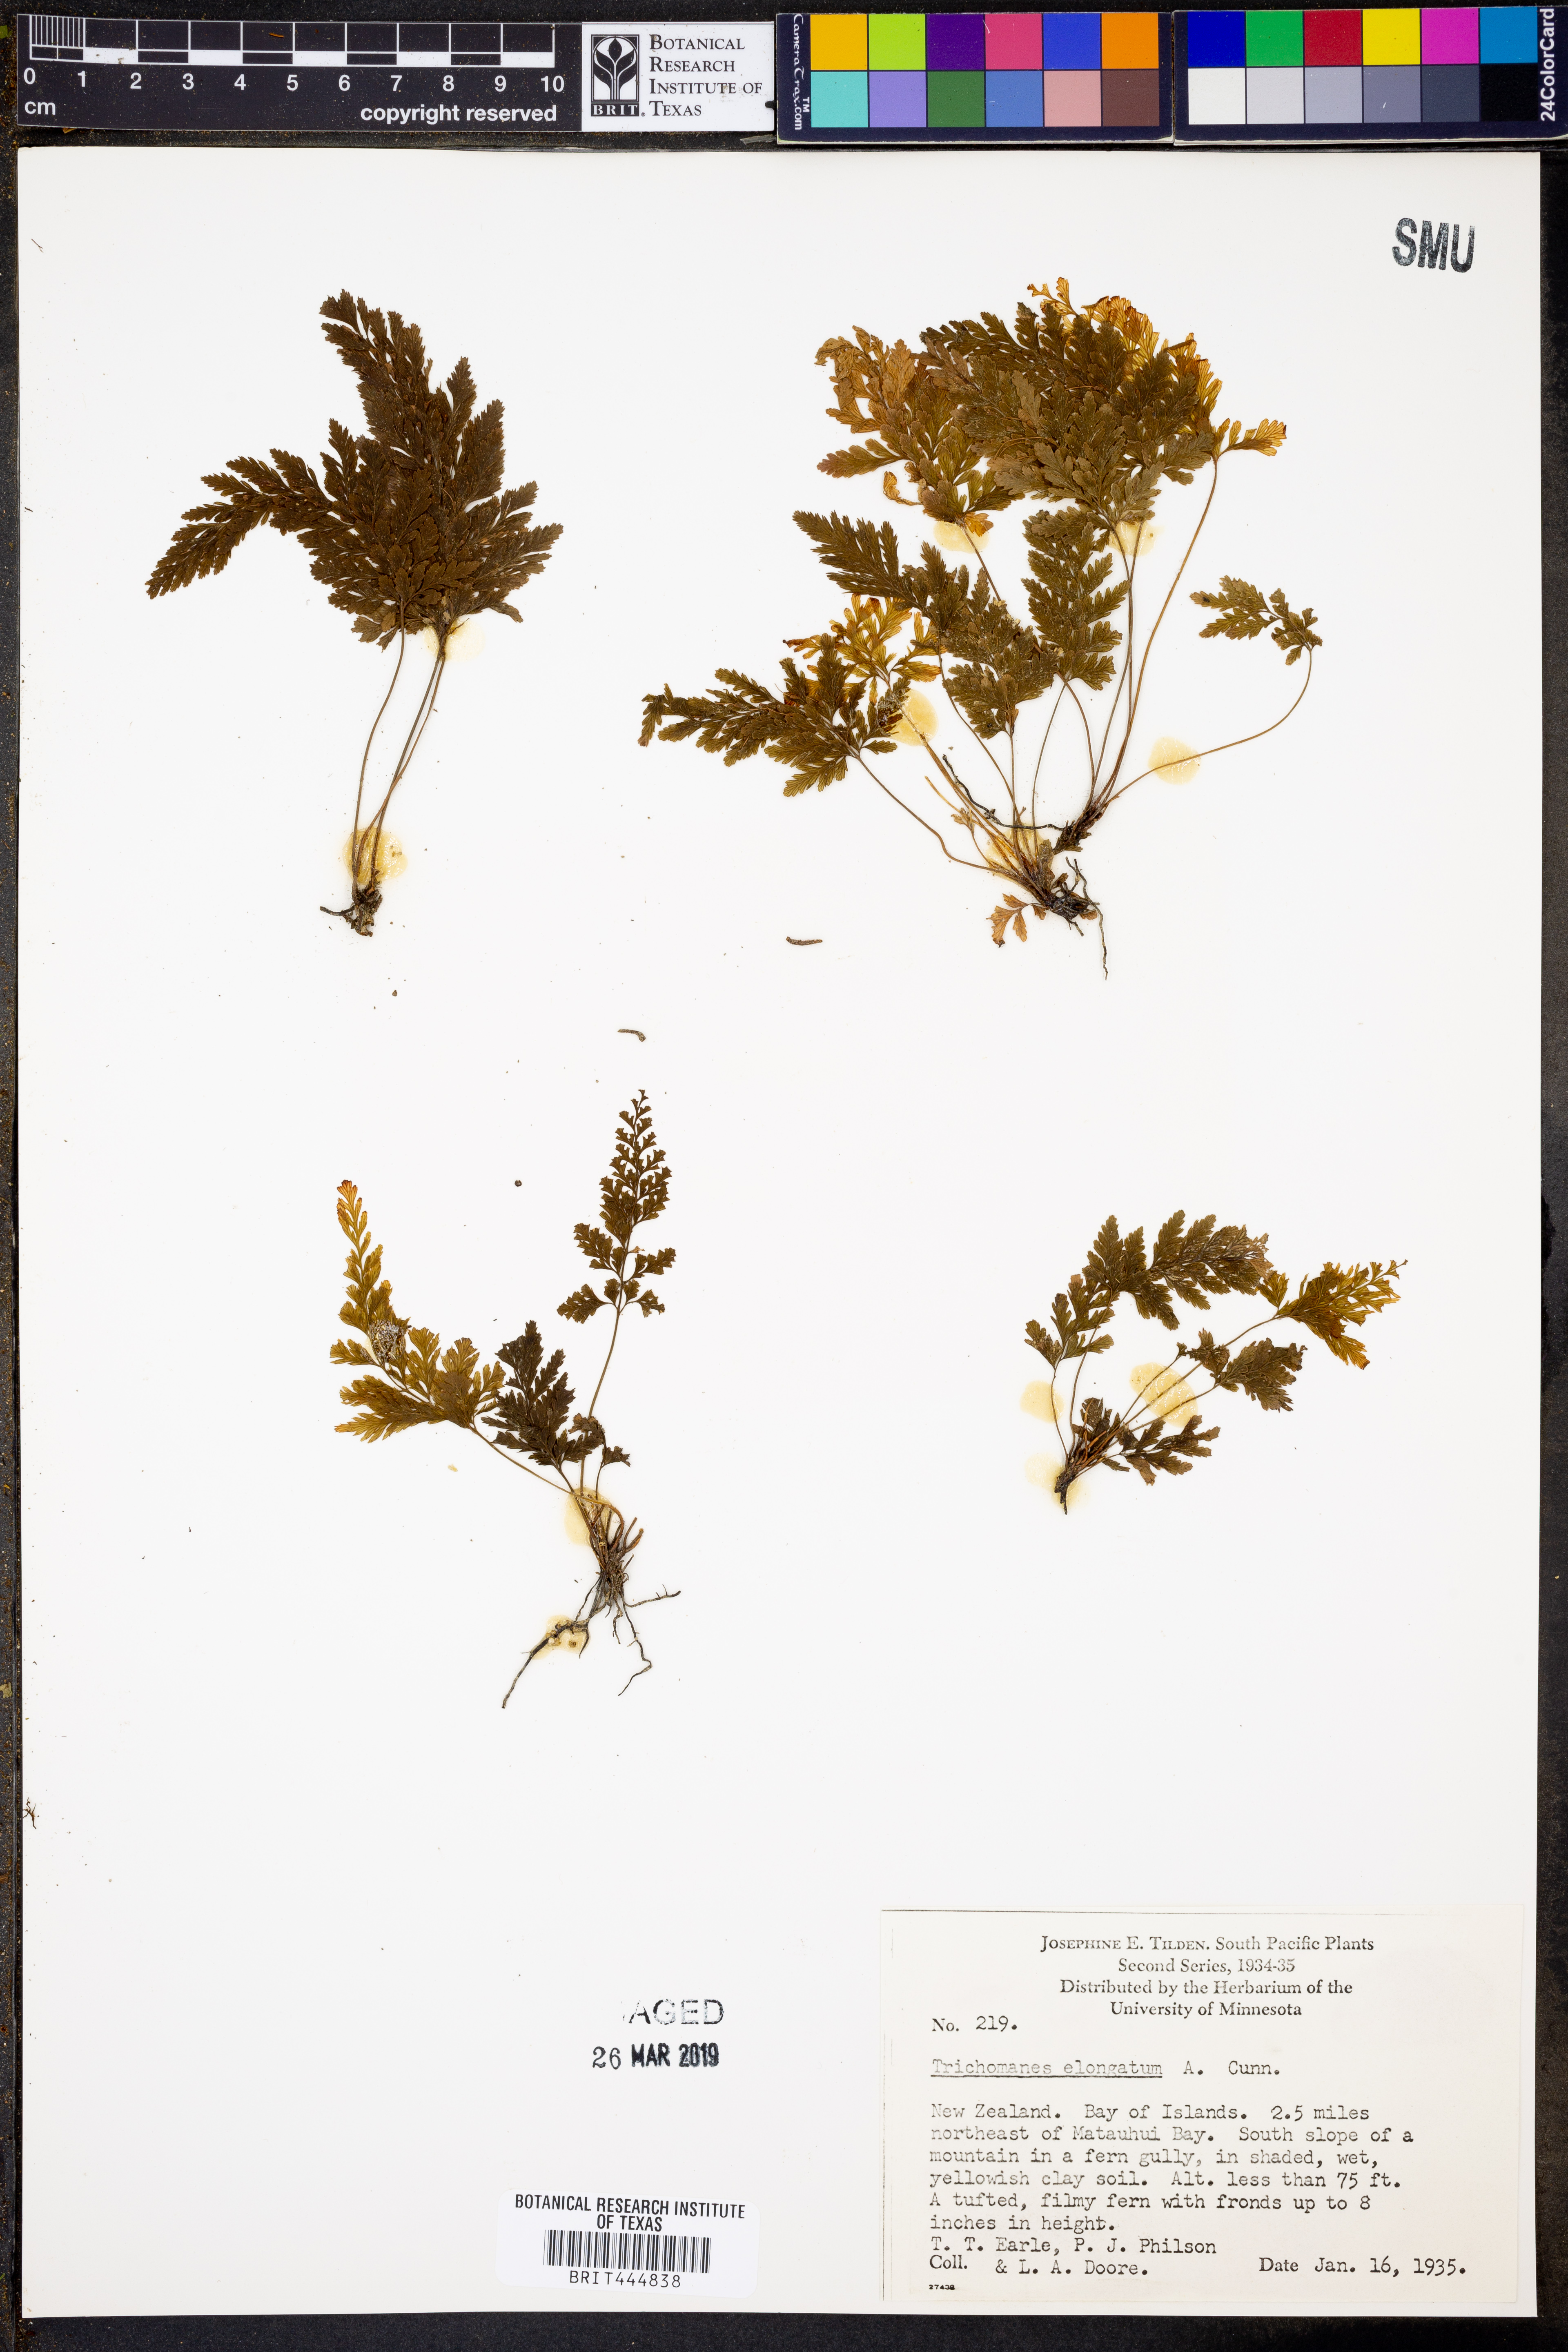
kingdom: Plantae
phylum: Tracheophyta
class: Polypodiopsida
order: Hymenophyllales
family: Hymenophyllaceae
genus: Abrodictyum
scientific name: Abrodictyum elongatum
